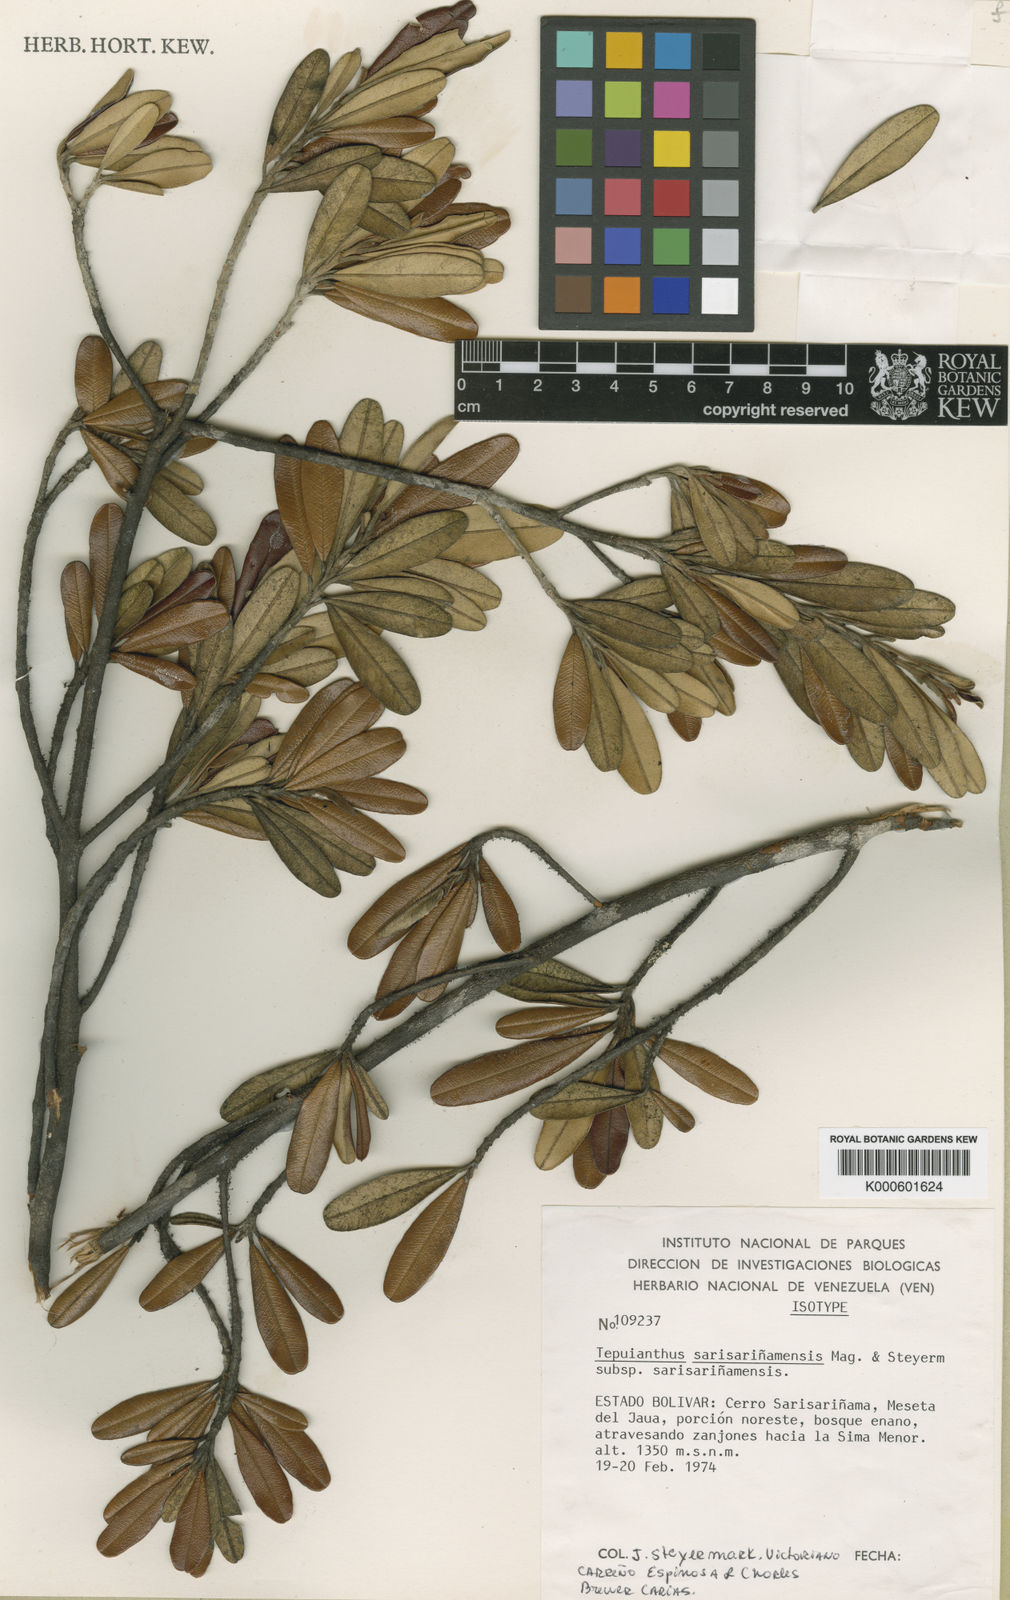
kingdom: Plantae
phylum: Tracheophyta
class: Magnoliopsida
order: Malvales
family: Thymelaeaceae
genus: Tepuianthus
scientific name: Tepuianthus sarisarinamensis
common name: Sarisariñama tepuianthus
